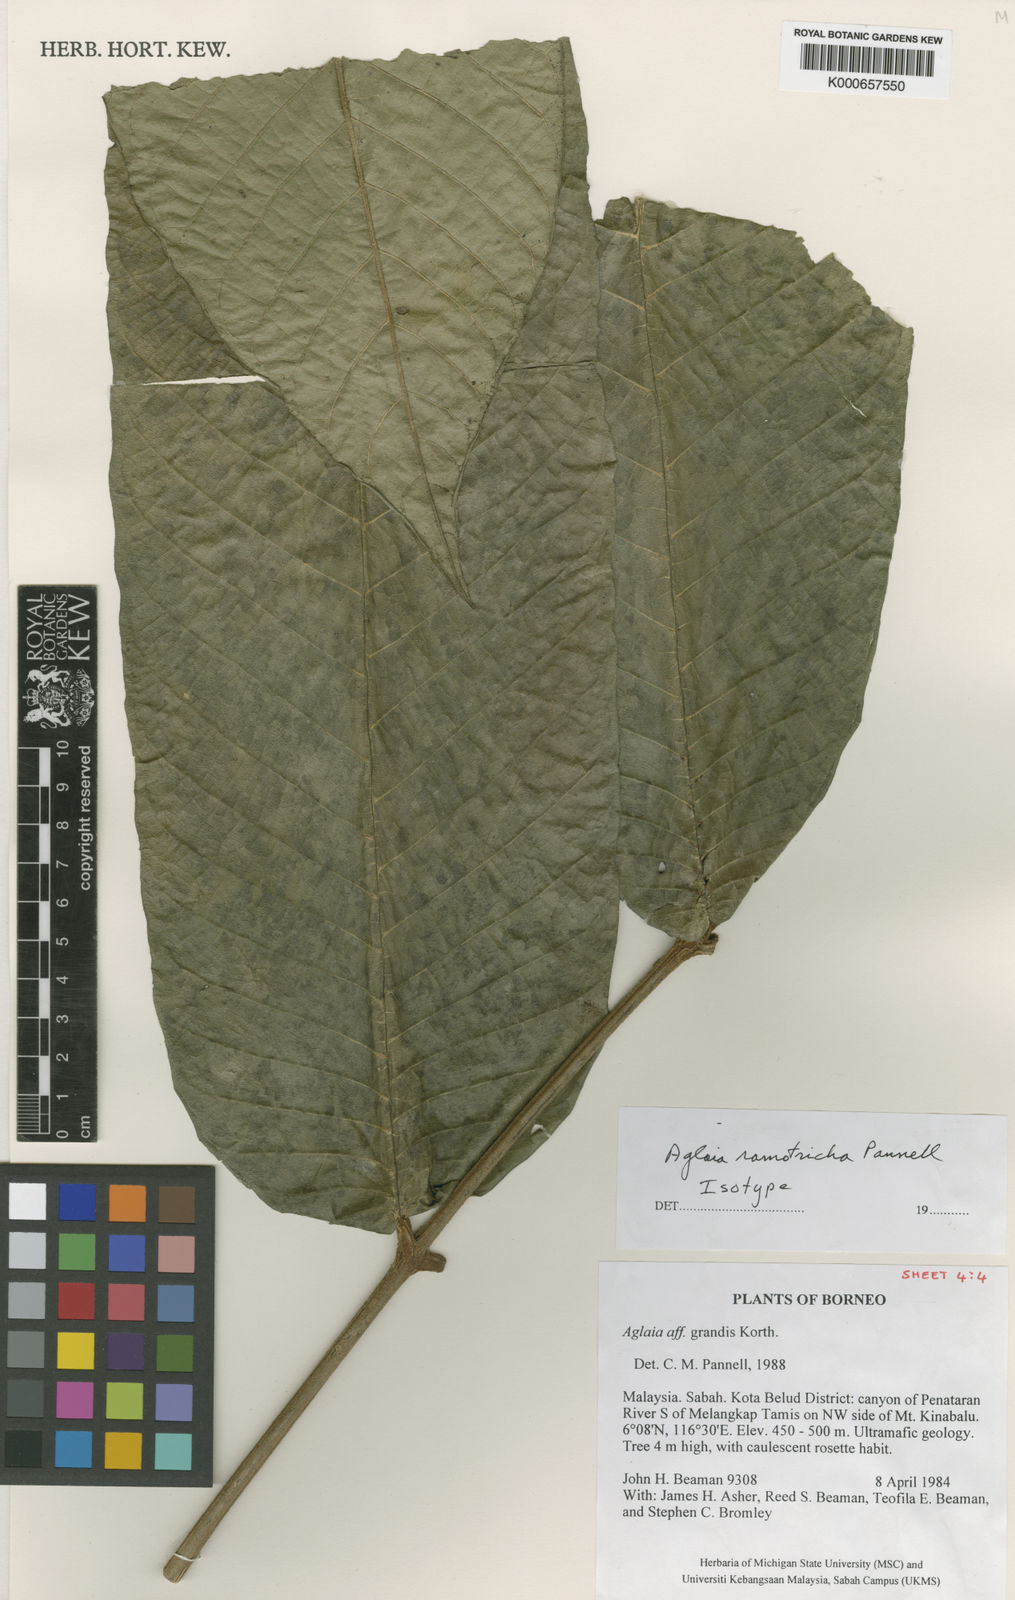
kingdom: Plantae
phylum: Tracheophyta
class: Magnoliopsida
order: Sapindales
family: Meliaceae
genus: Aglaia
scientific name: Aglaia ramotricha
